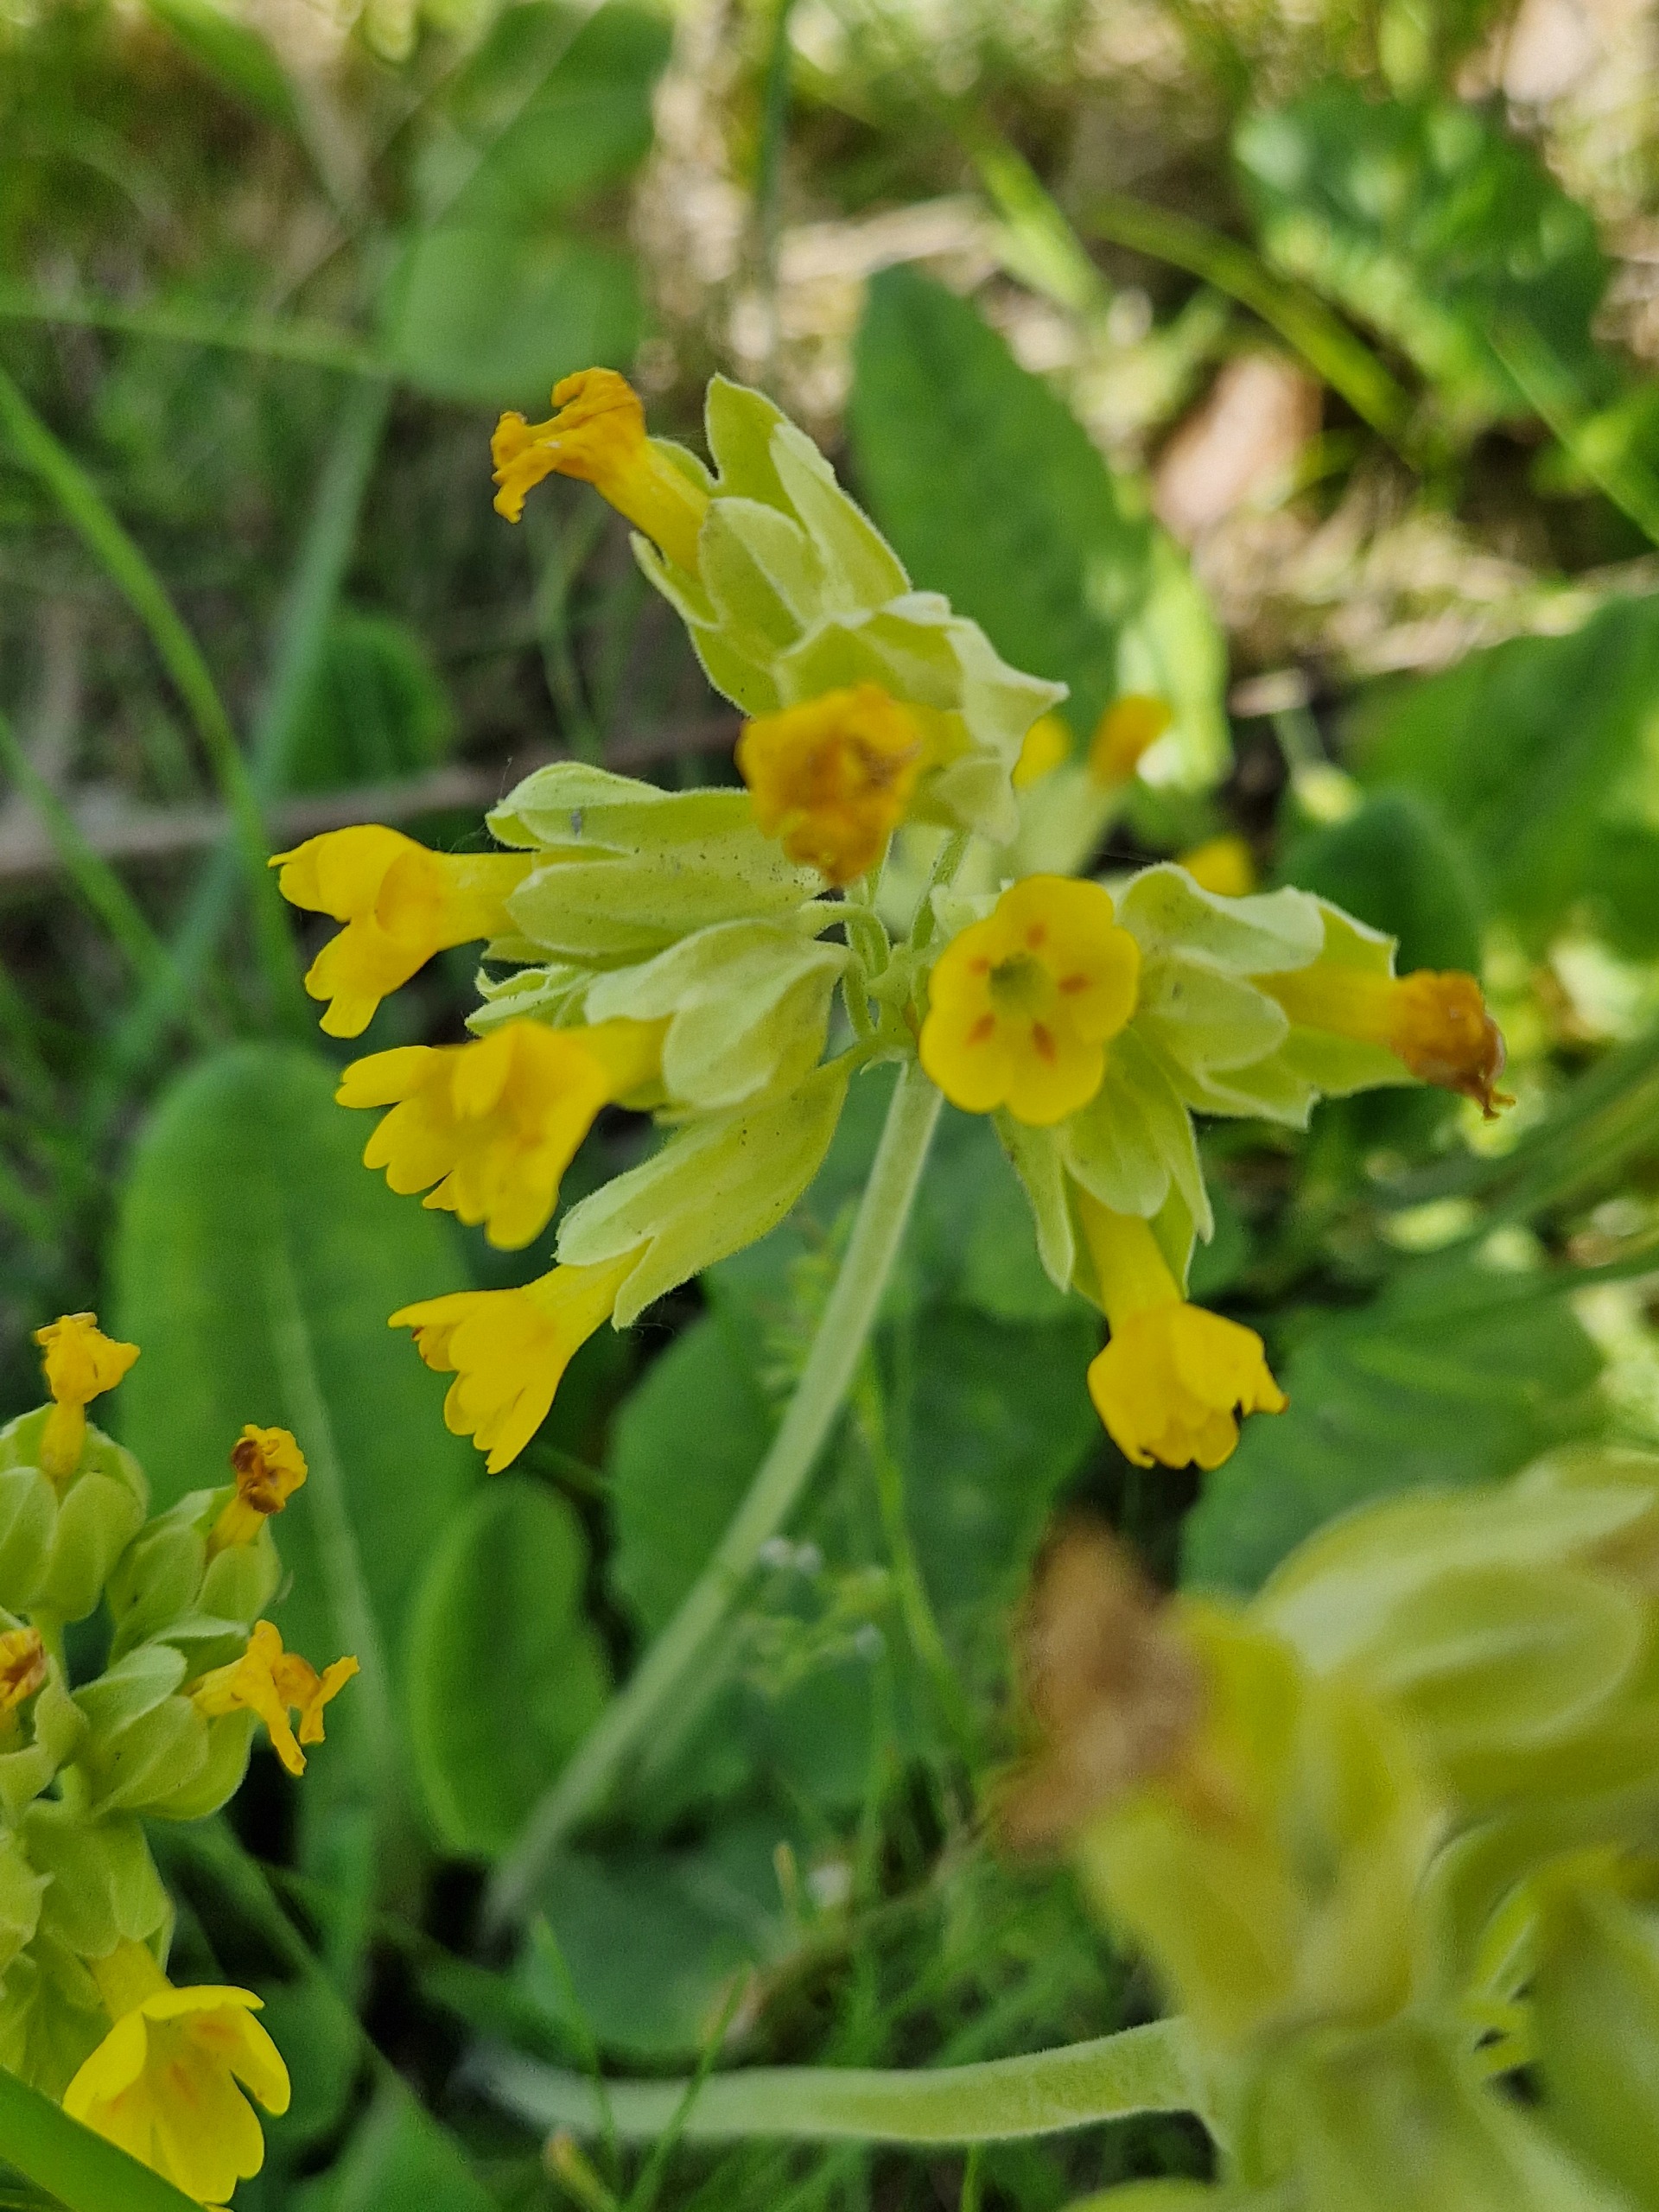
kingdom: Plantae
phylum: Tracheophyta
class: Magnoliopsida
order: Ericales
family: Primulaceae
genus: Primula
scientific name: Primula veris
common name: Hulkravet kodriver
